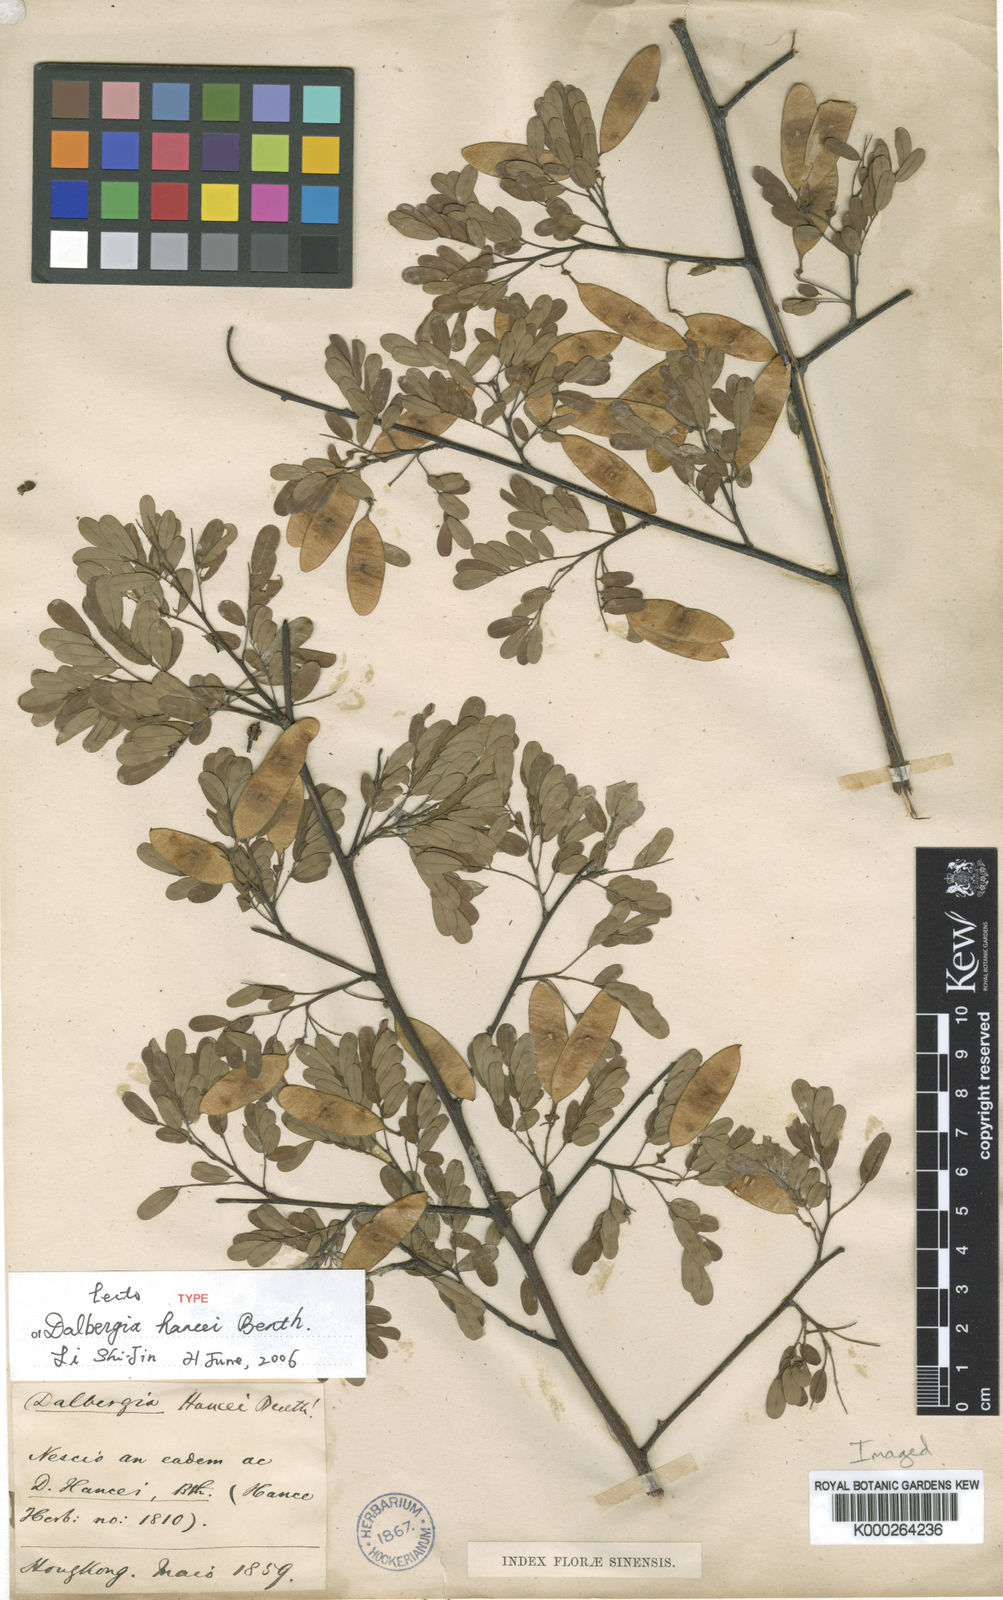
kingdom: Plantae
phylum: Tracheophyta
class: Magnoliopsida
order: Fabales
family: Fabaceae
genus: Dalbergia
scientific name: Dalbergia hancei
